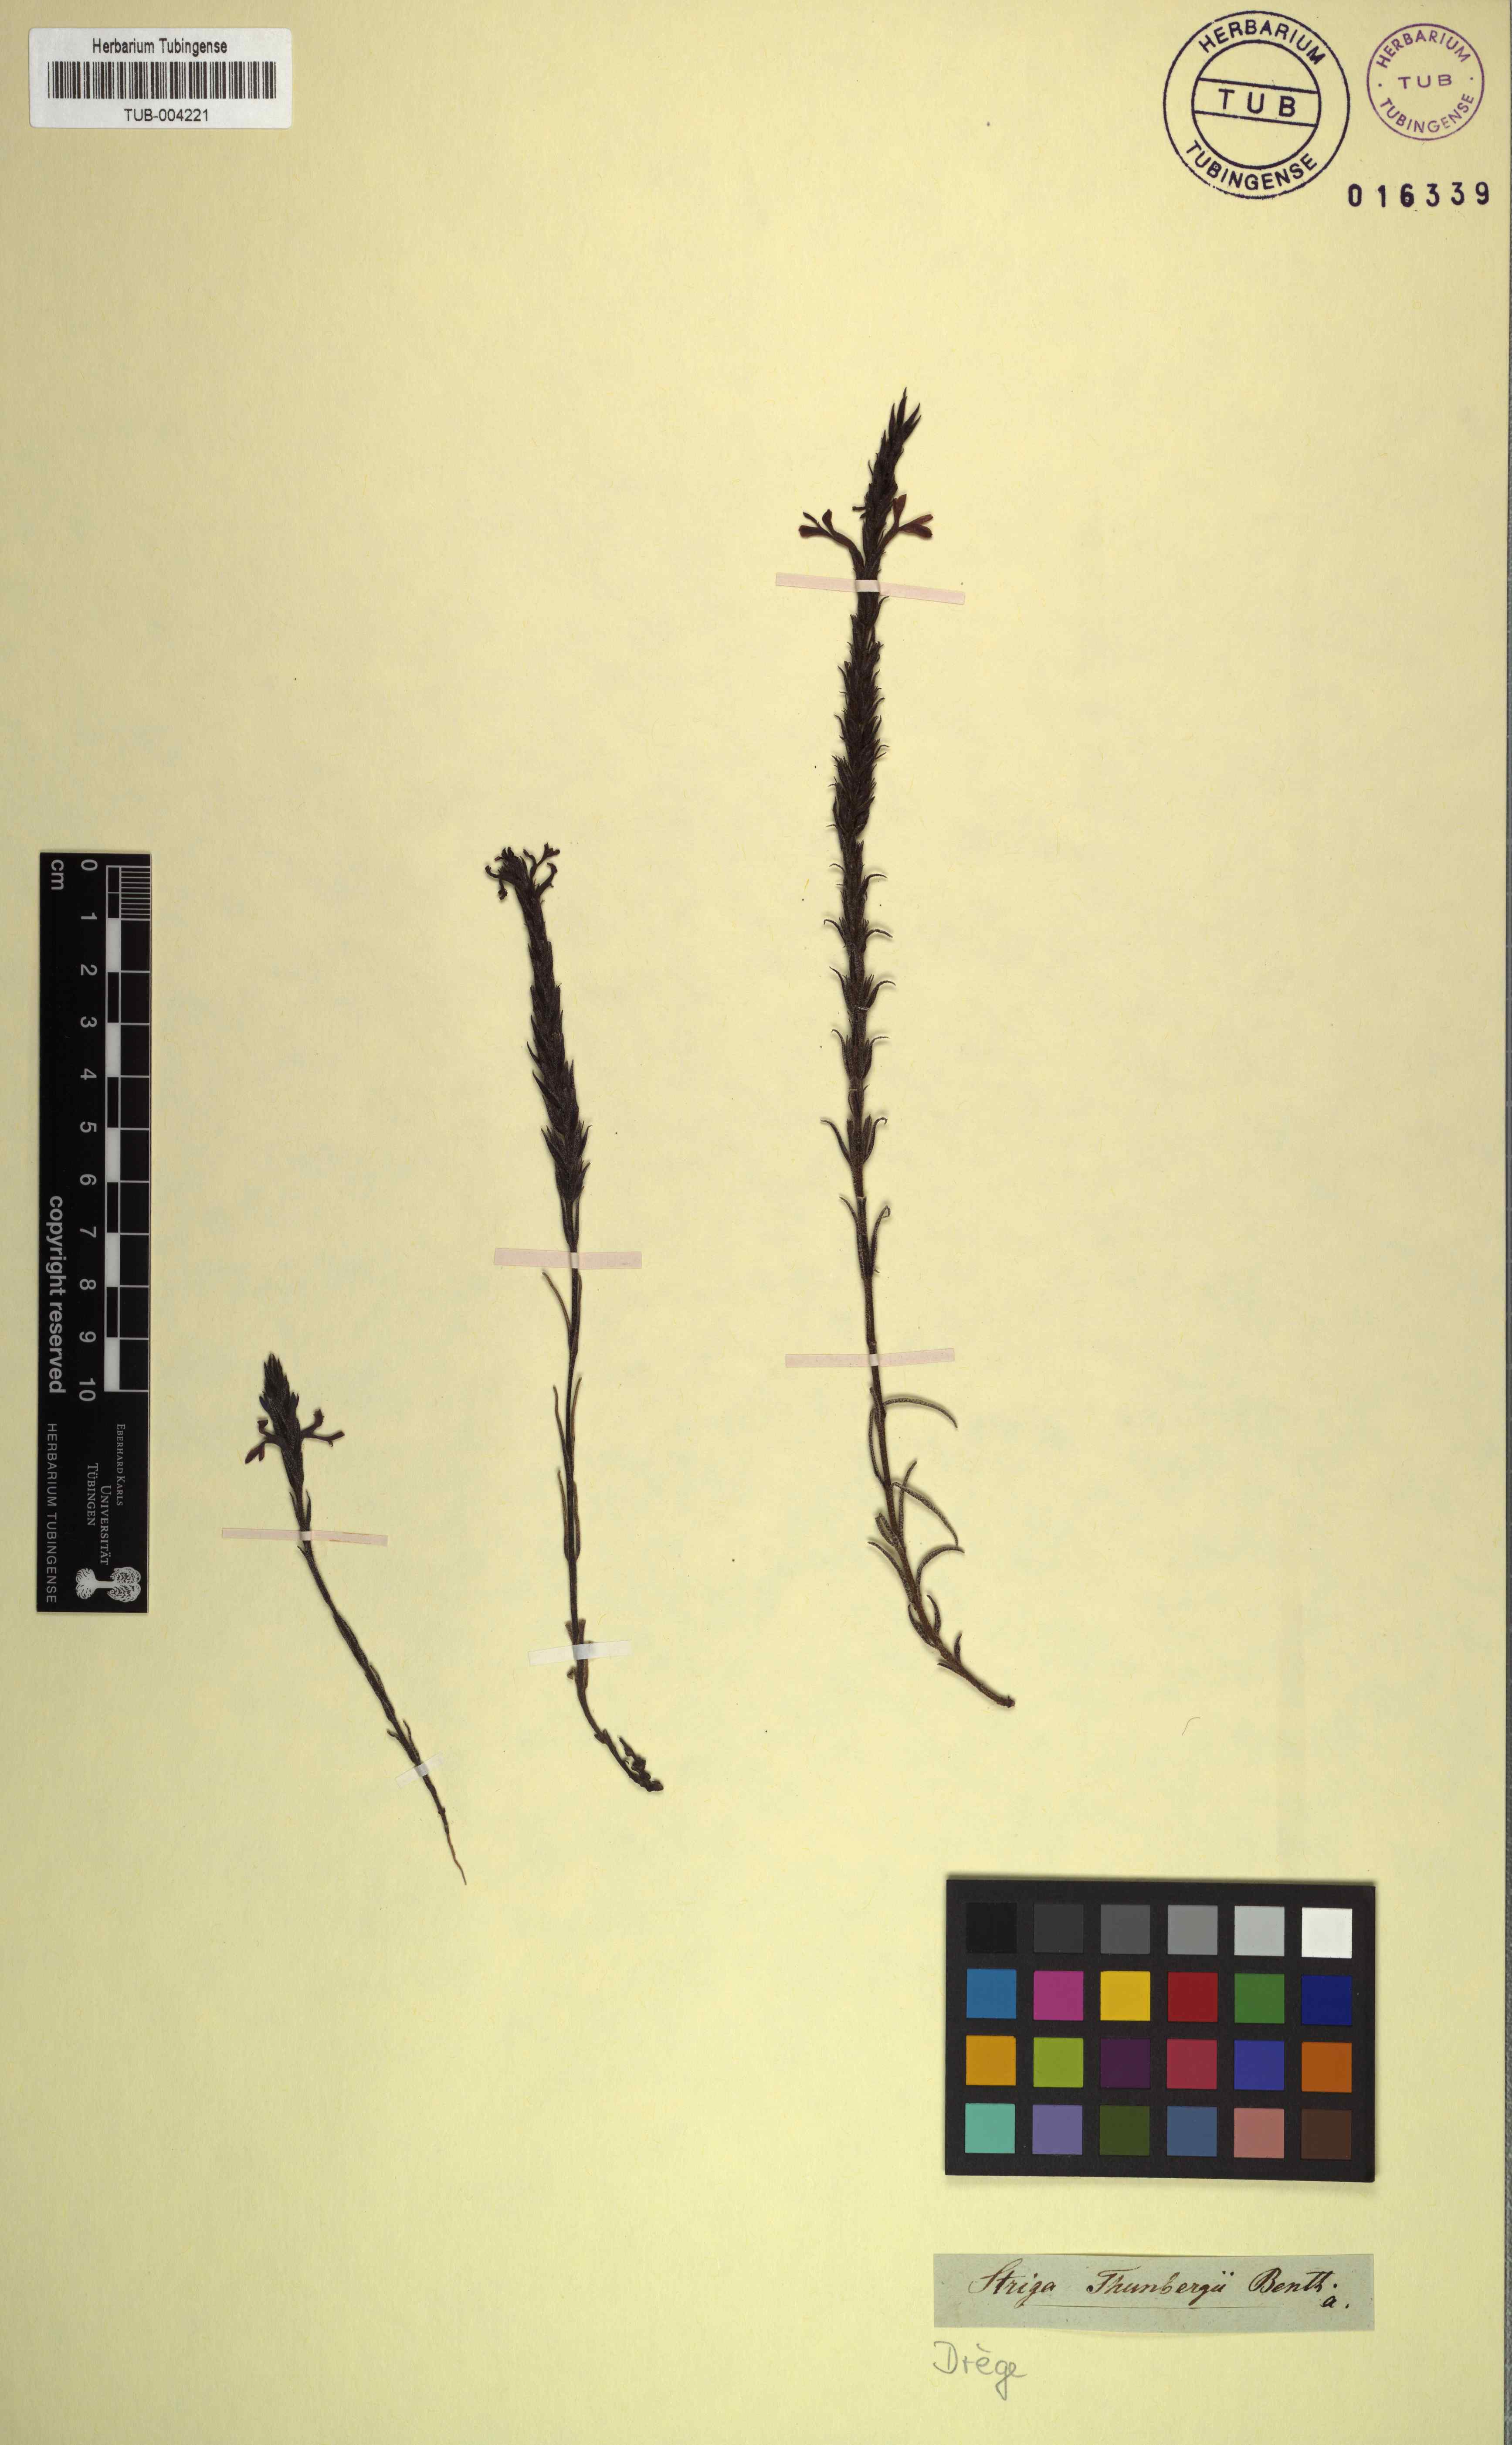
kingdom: Plantae
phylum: Tracheophyta
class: Magnoliopsida
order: Lamiales
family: Orobanchaceae
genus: Striga
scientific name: Striga bilabiata
